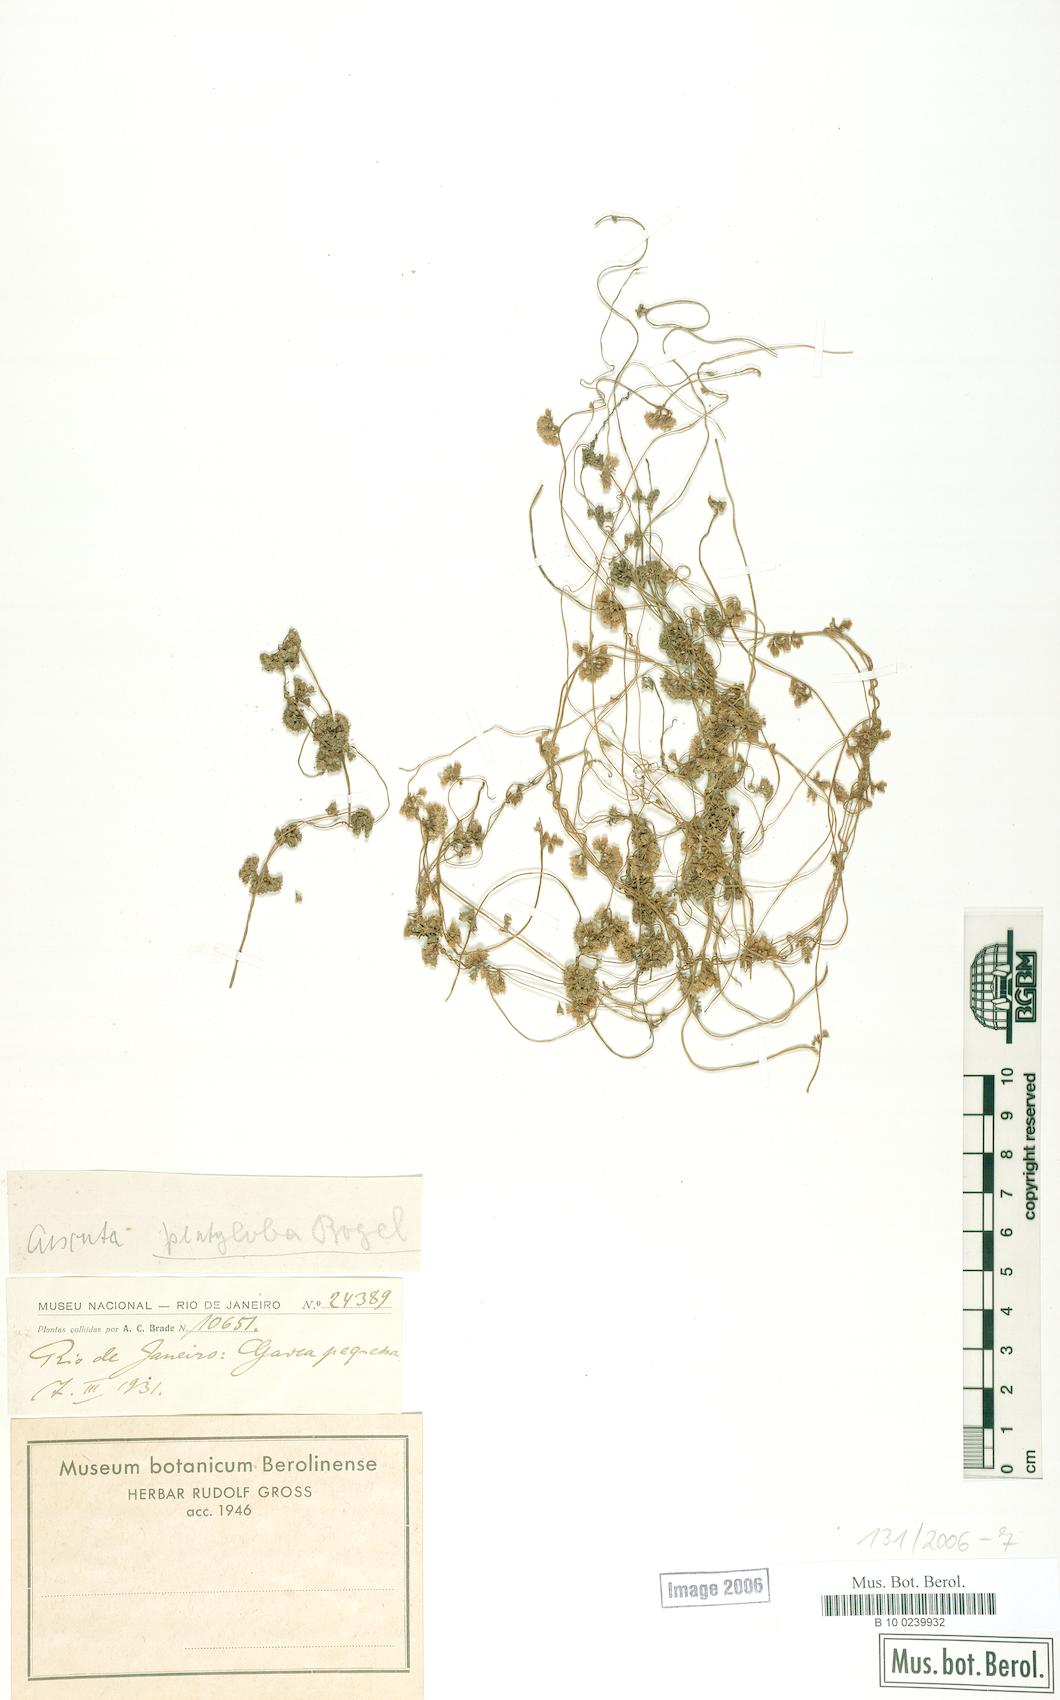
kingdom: Plantae
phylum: Tracheophyta
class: Magnoliopsida
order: Solanales
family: Convolvulaceae
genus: Cuscuta
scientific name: Cuscuta platyloba
